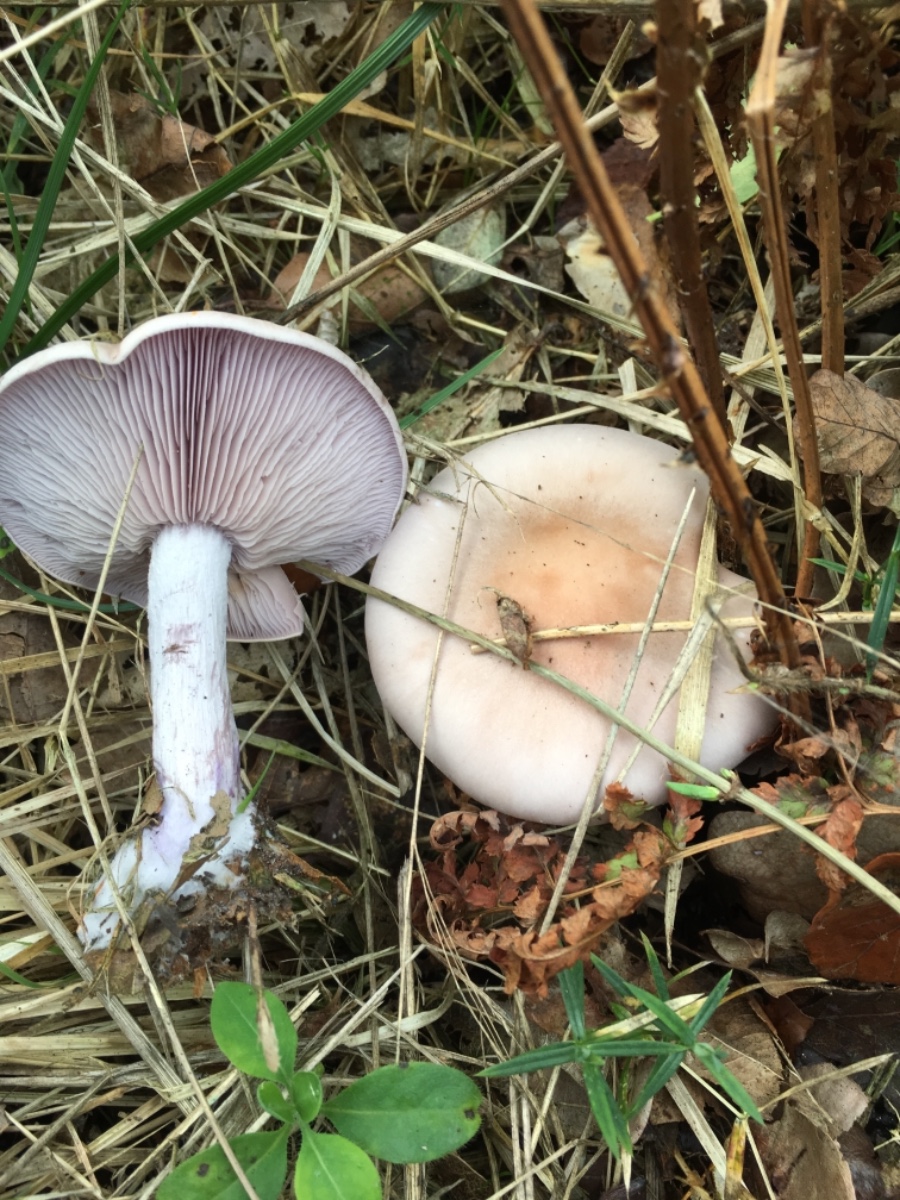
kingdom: Fungi
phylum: Basidiomycota
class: Agaricomycetes
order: Agaricales
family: Tricholomataceae
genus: Lepista
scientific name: Lepista nuda
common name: violet hekseringshat
